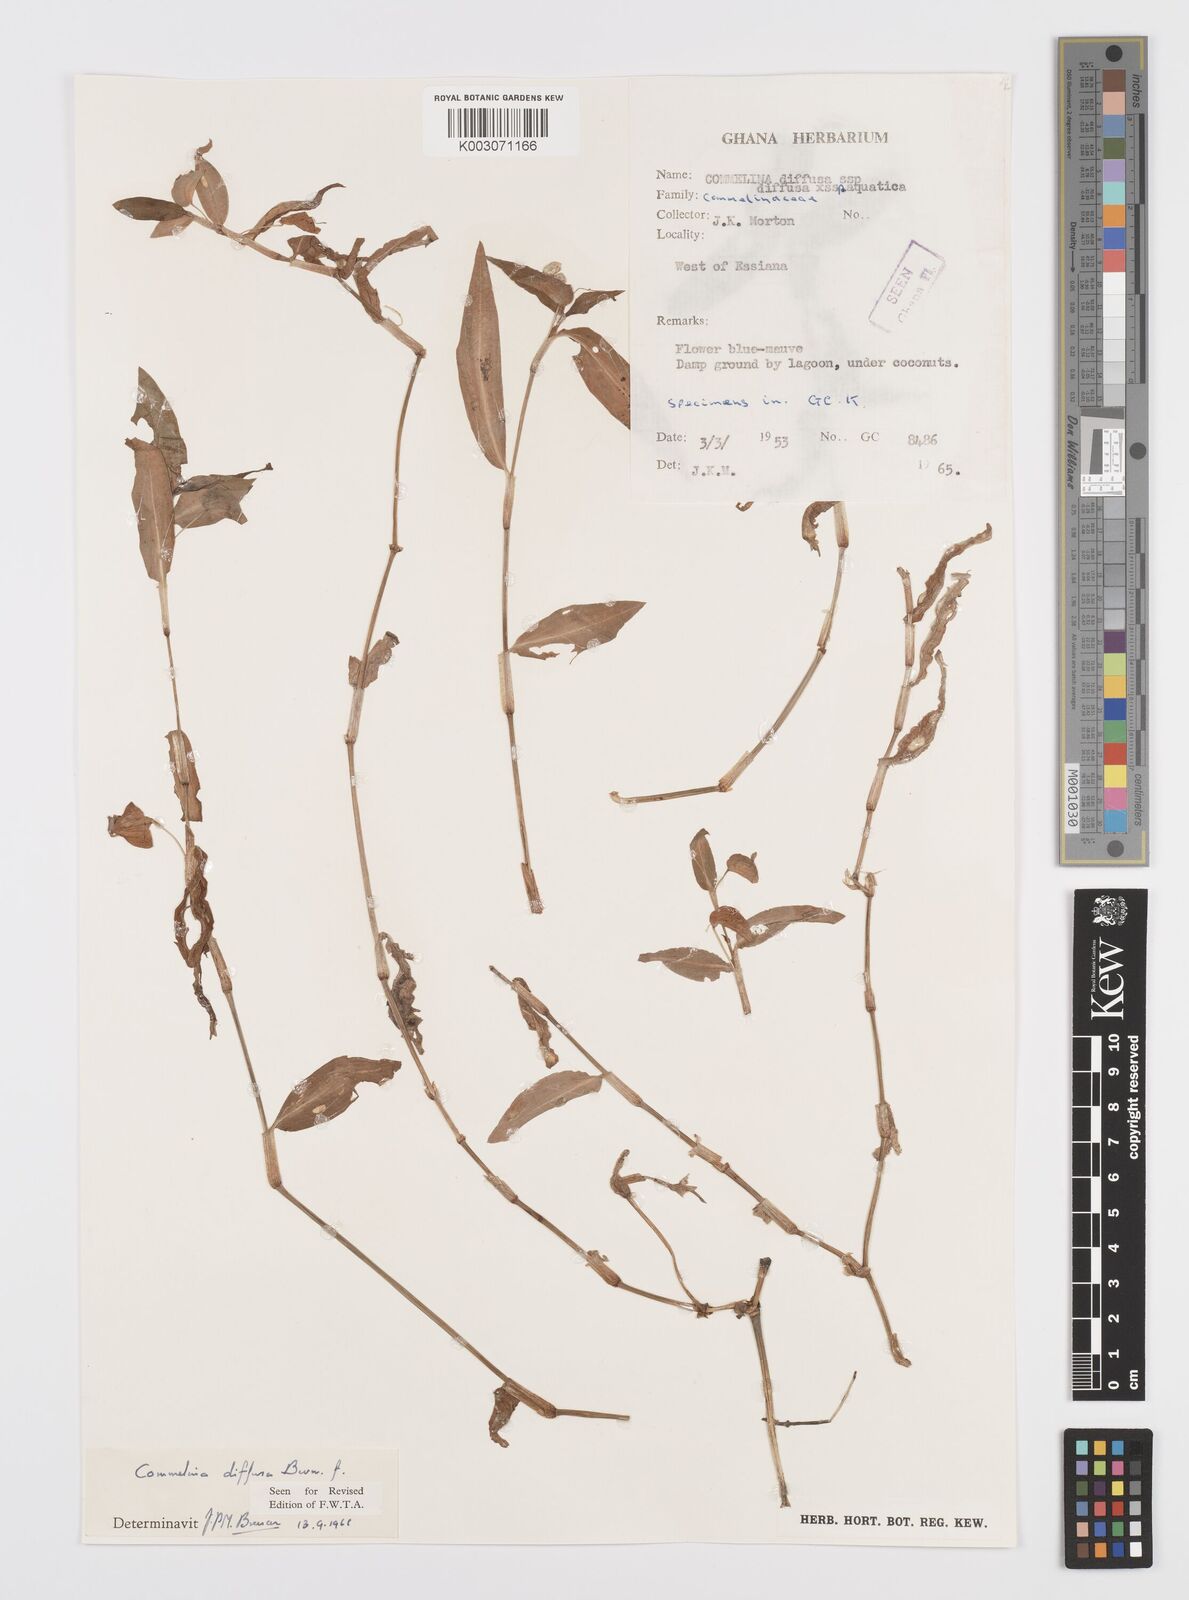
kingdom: Plantae
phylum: Tracheophyta
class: Liliopsida
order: Commelinales
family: Commelinaceae
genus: Commelina
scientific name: Commelina diffusa
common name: Climbing dayflower
